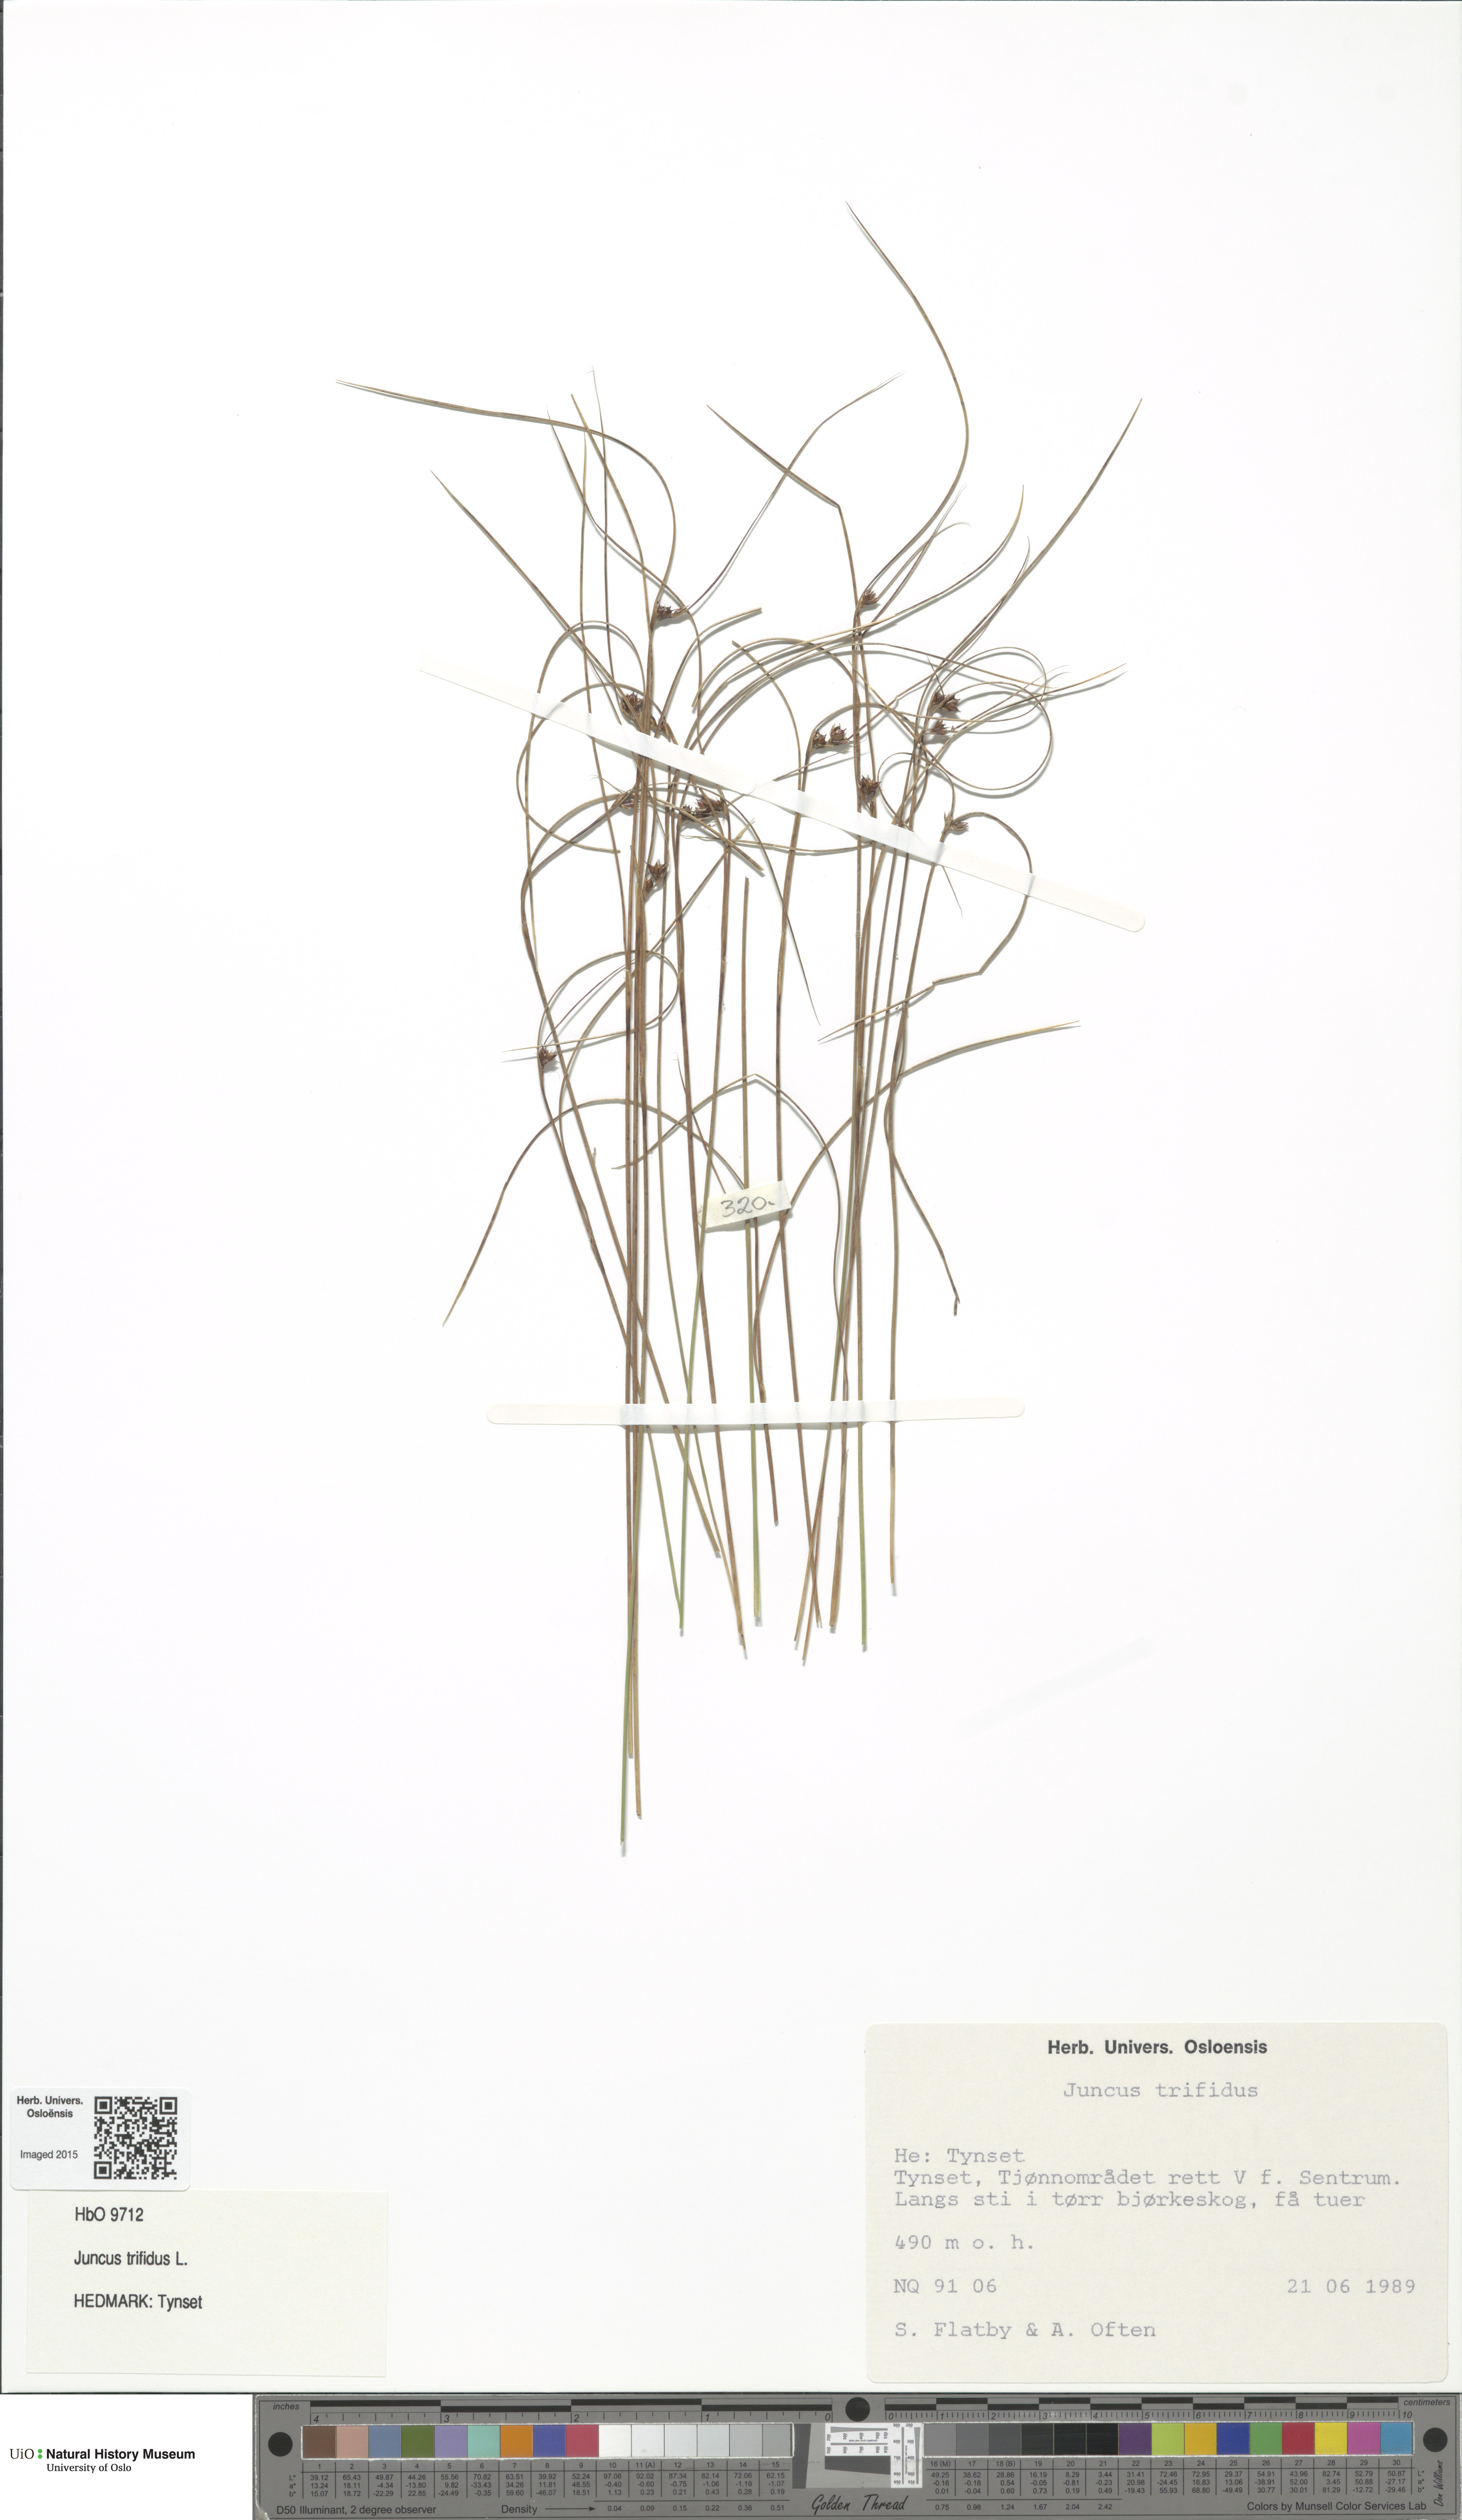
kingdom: Plantae
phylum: Tracheophyta
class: Liliopsida
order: Poales
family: Juncaceae
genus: Oreojuncus
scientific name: Oreojuncus trifidus
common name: Highland rush
